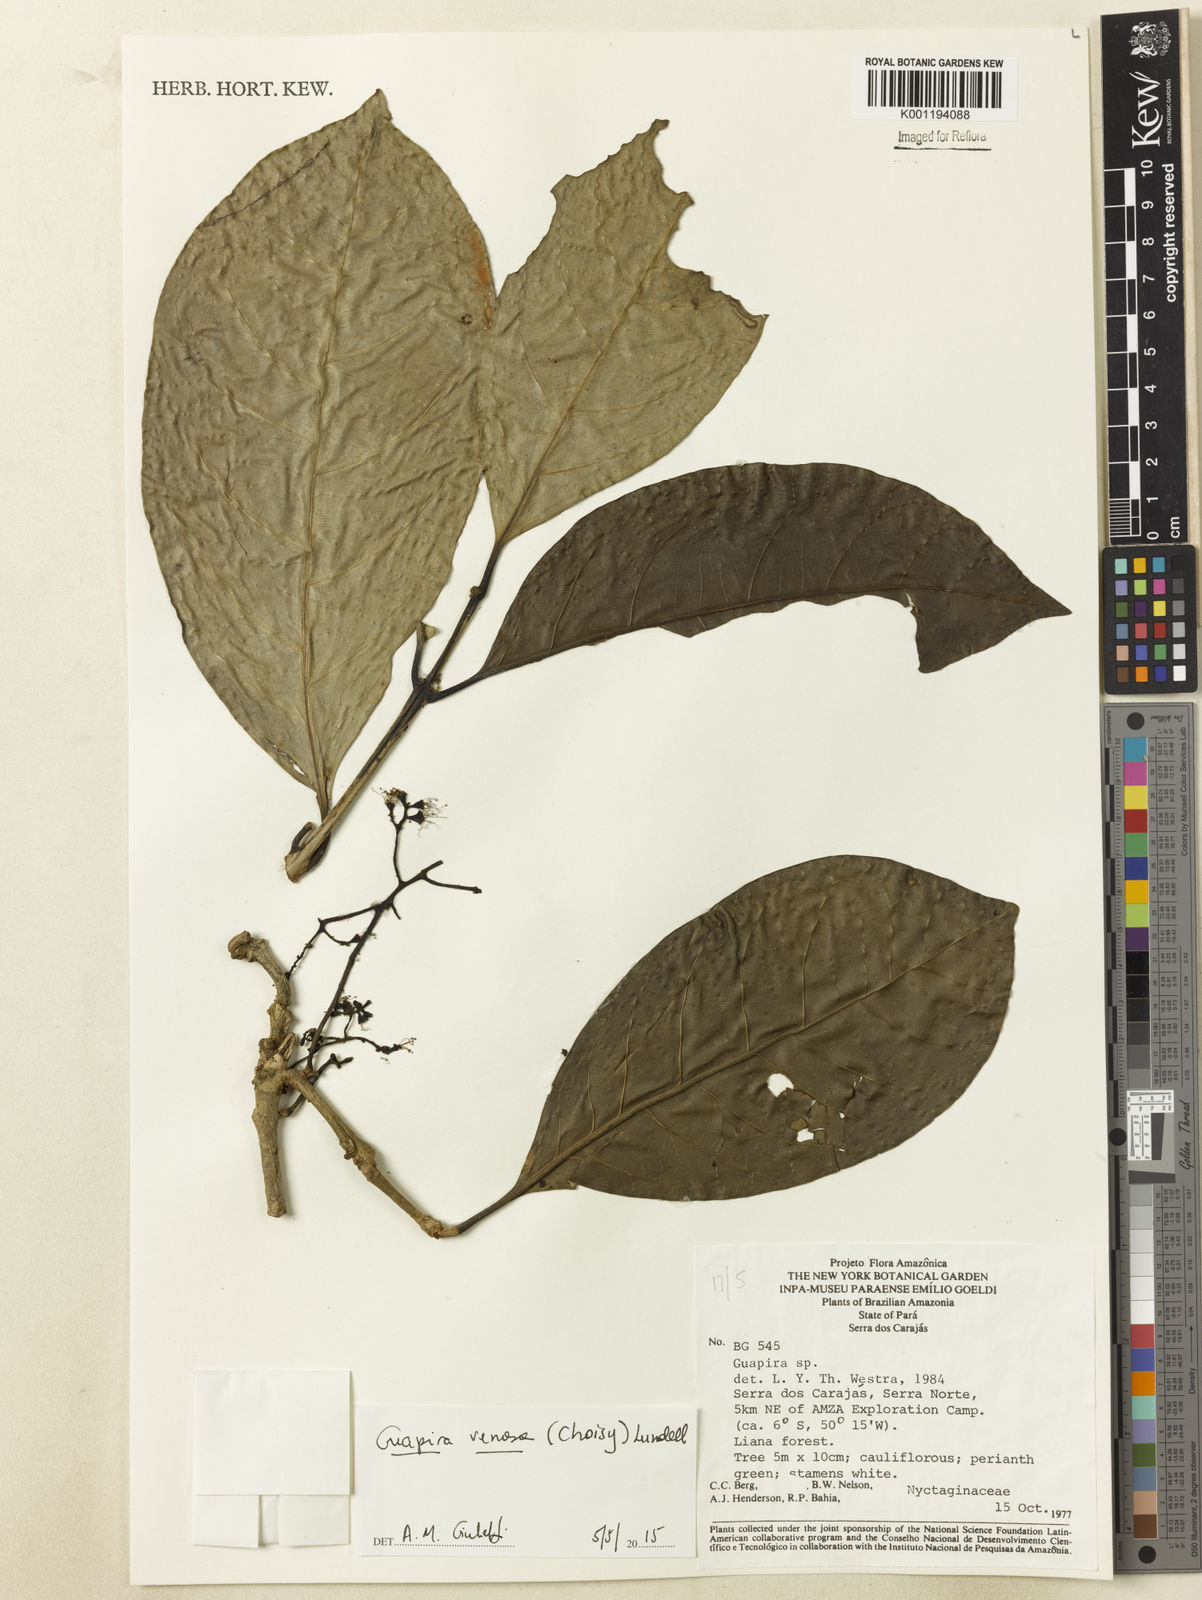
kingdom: Plantae
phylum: Tracheophyta
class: Magnoliopsida
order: Caryophyllales
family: Nyctaginaceae
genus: Guapira
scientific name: Guapira venosa
